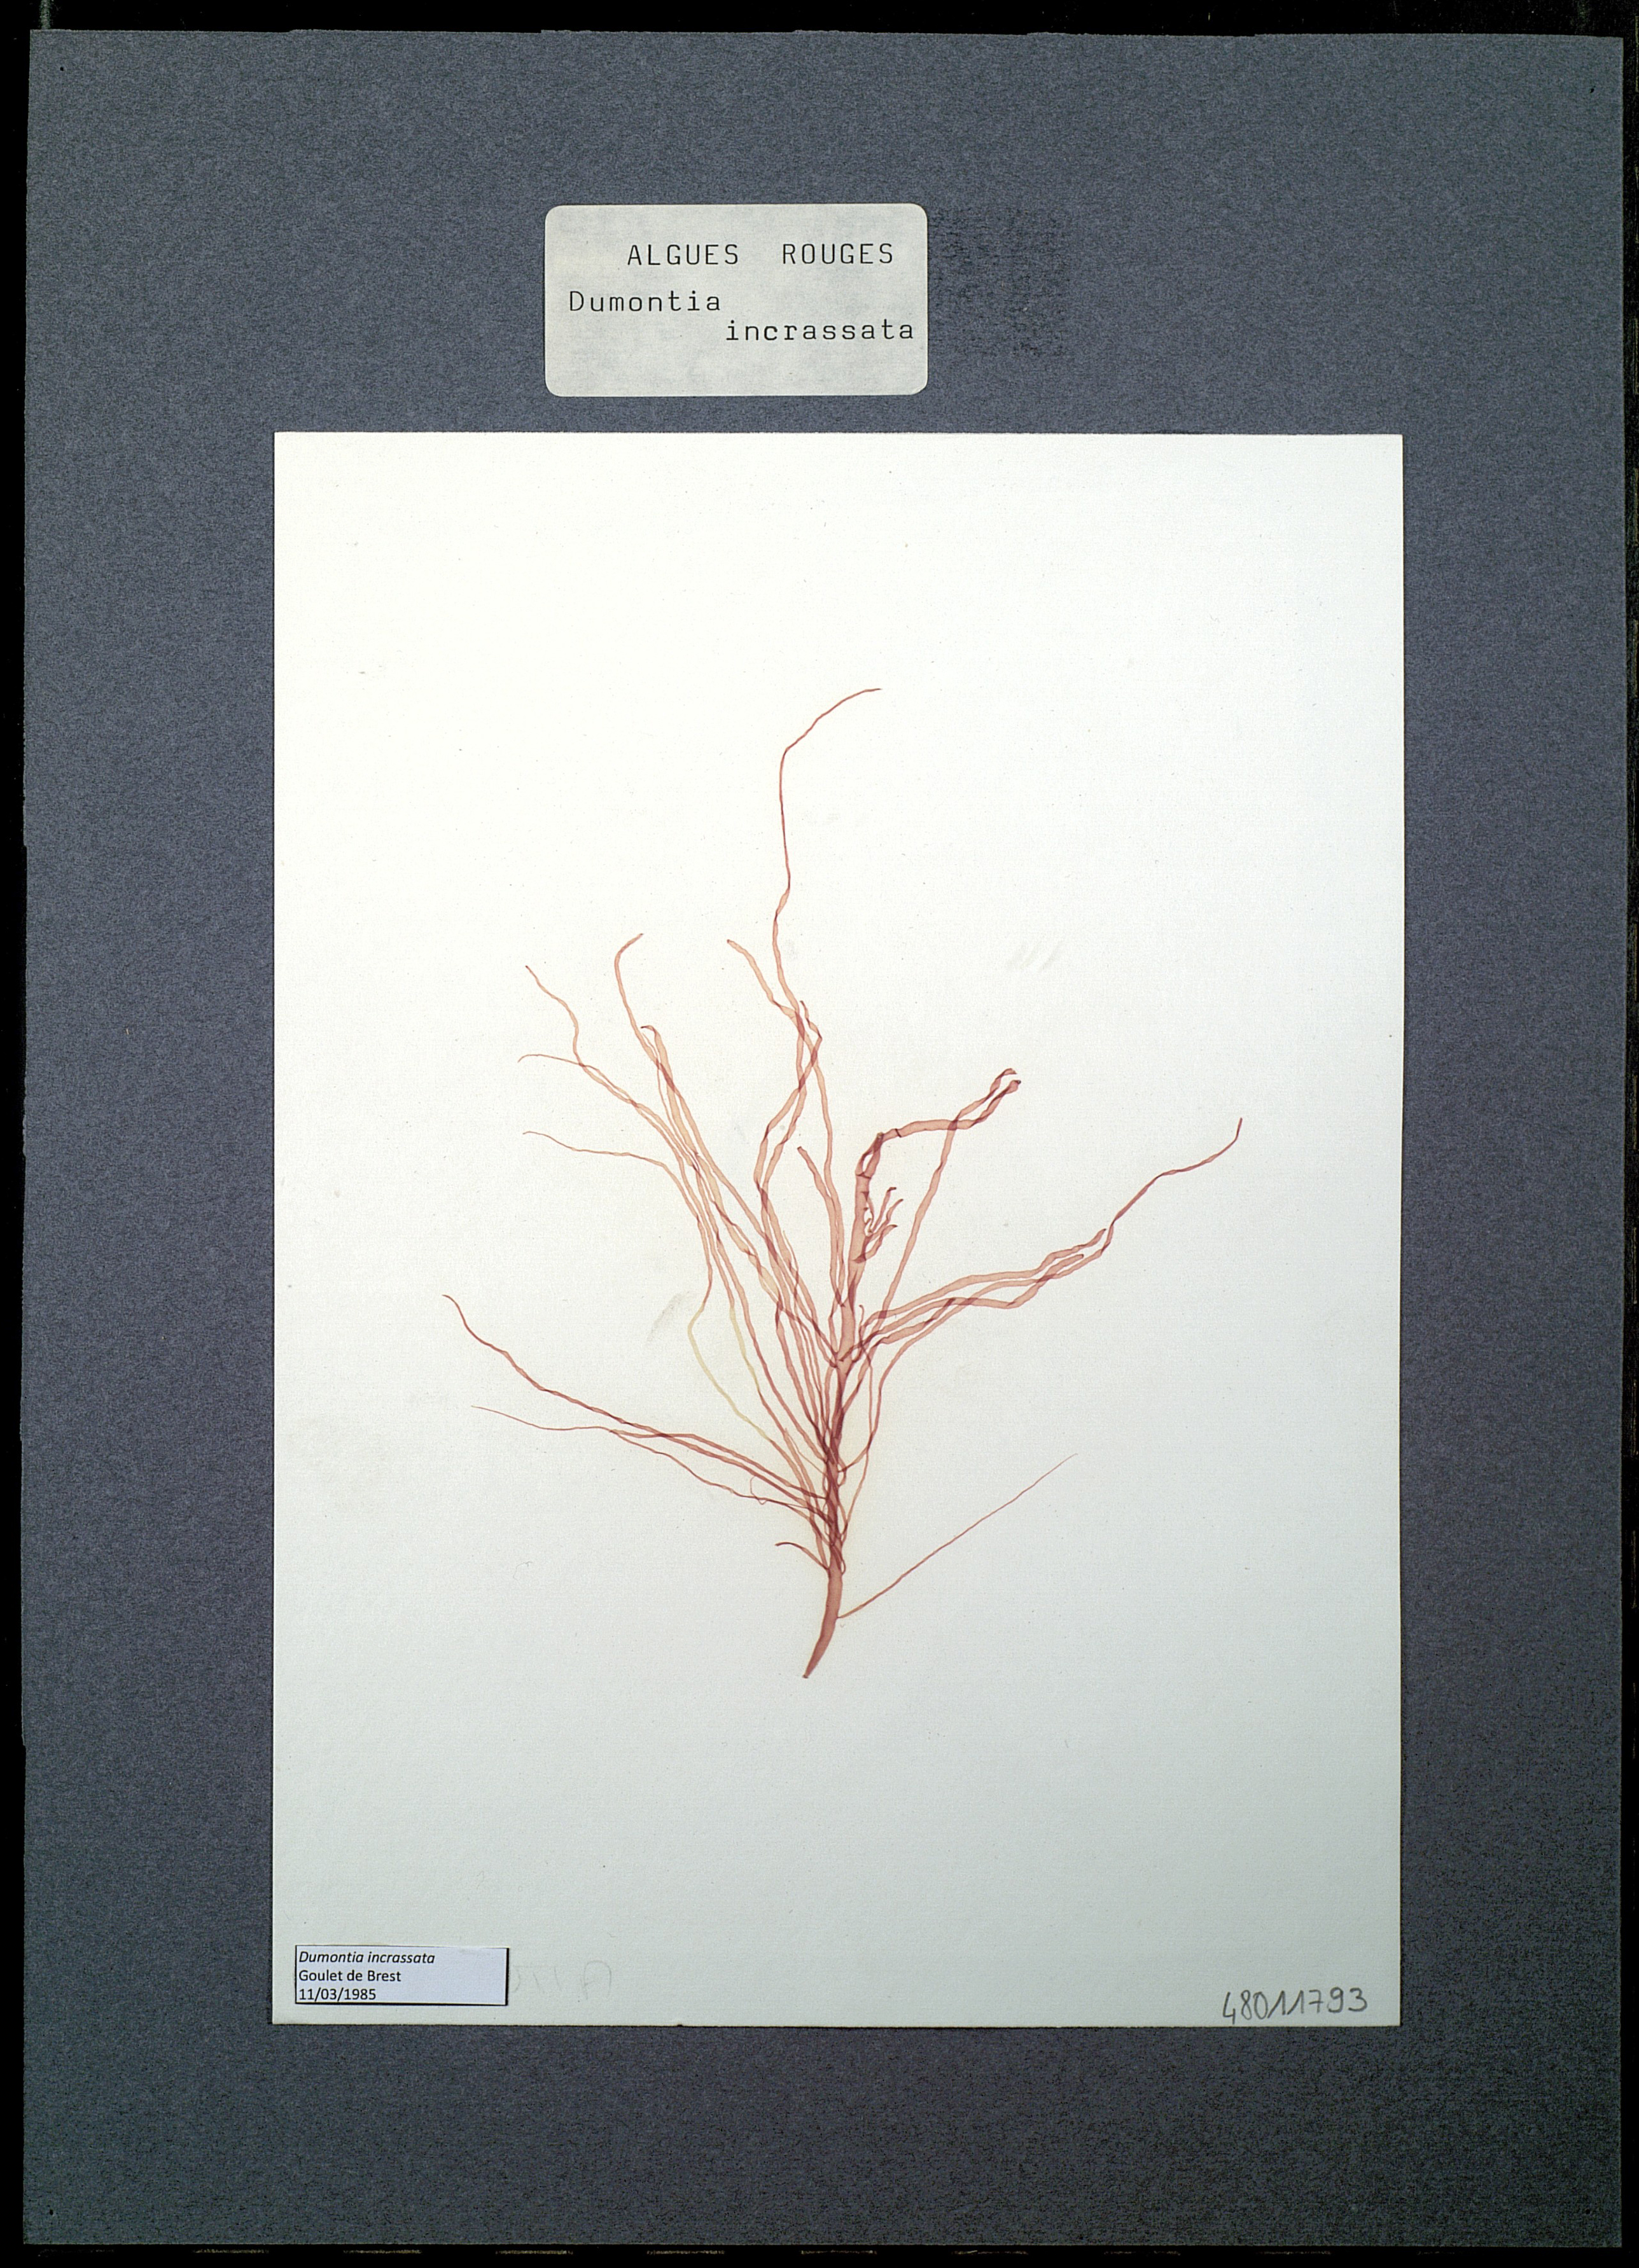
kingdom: Plantae
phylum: Rhodophyta
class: Florideophyceae
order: Gigartinales
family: Dumontiaceae
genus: Dumontia
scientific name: Dumontia contorta
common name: Worm weed
